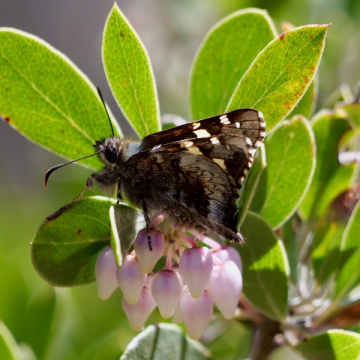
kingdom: Animalia
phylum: Arthropoda
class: Insecta
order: Lepidoptera
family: Hesperiidae
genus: Zestusa
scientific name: Zestusa dorus
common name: Short-tailed Skipper
